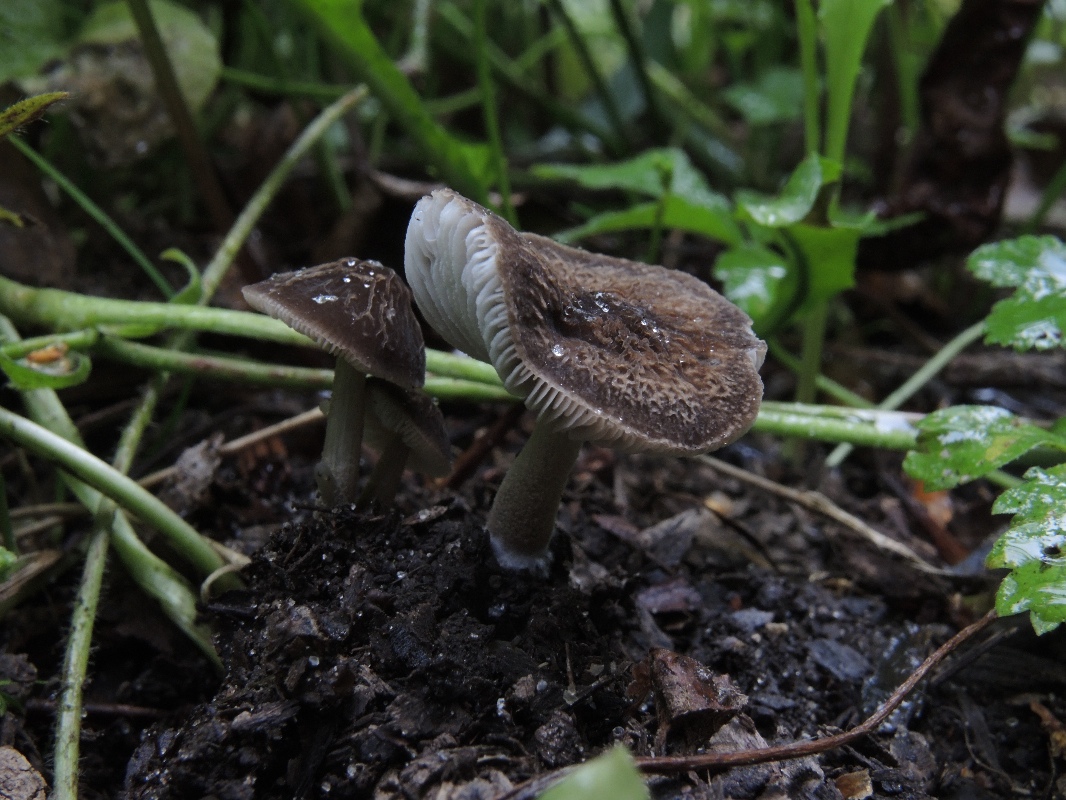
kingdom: Fungi
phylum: Basidiomycota
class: Agaricomycetes
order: Agaricales
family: Pluteaceae
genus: Pluteus
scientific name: Pluteus
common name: gråstokket skærmhat
